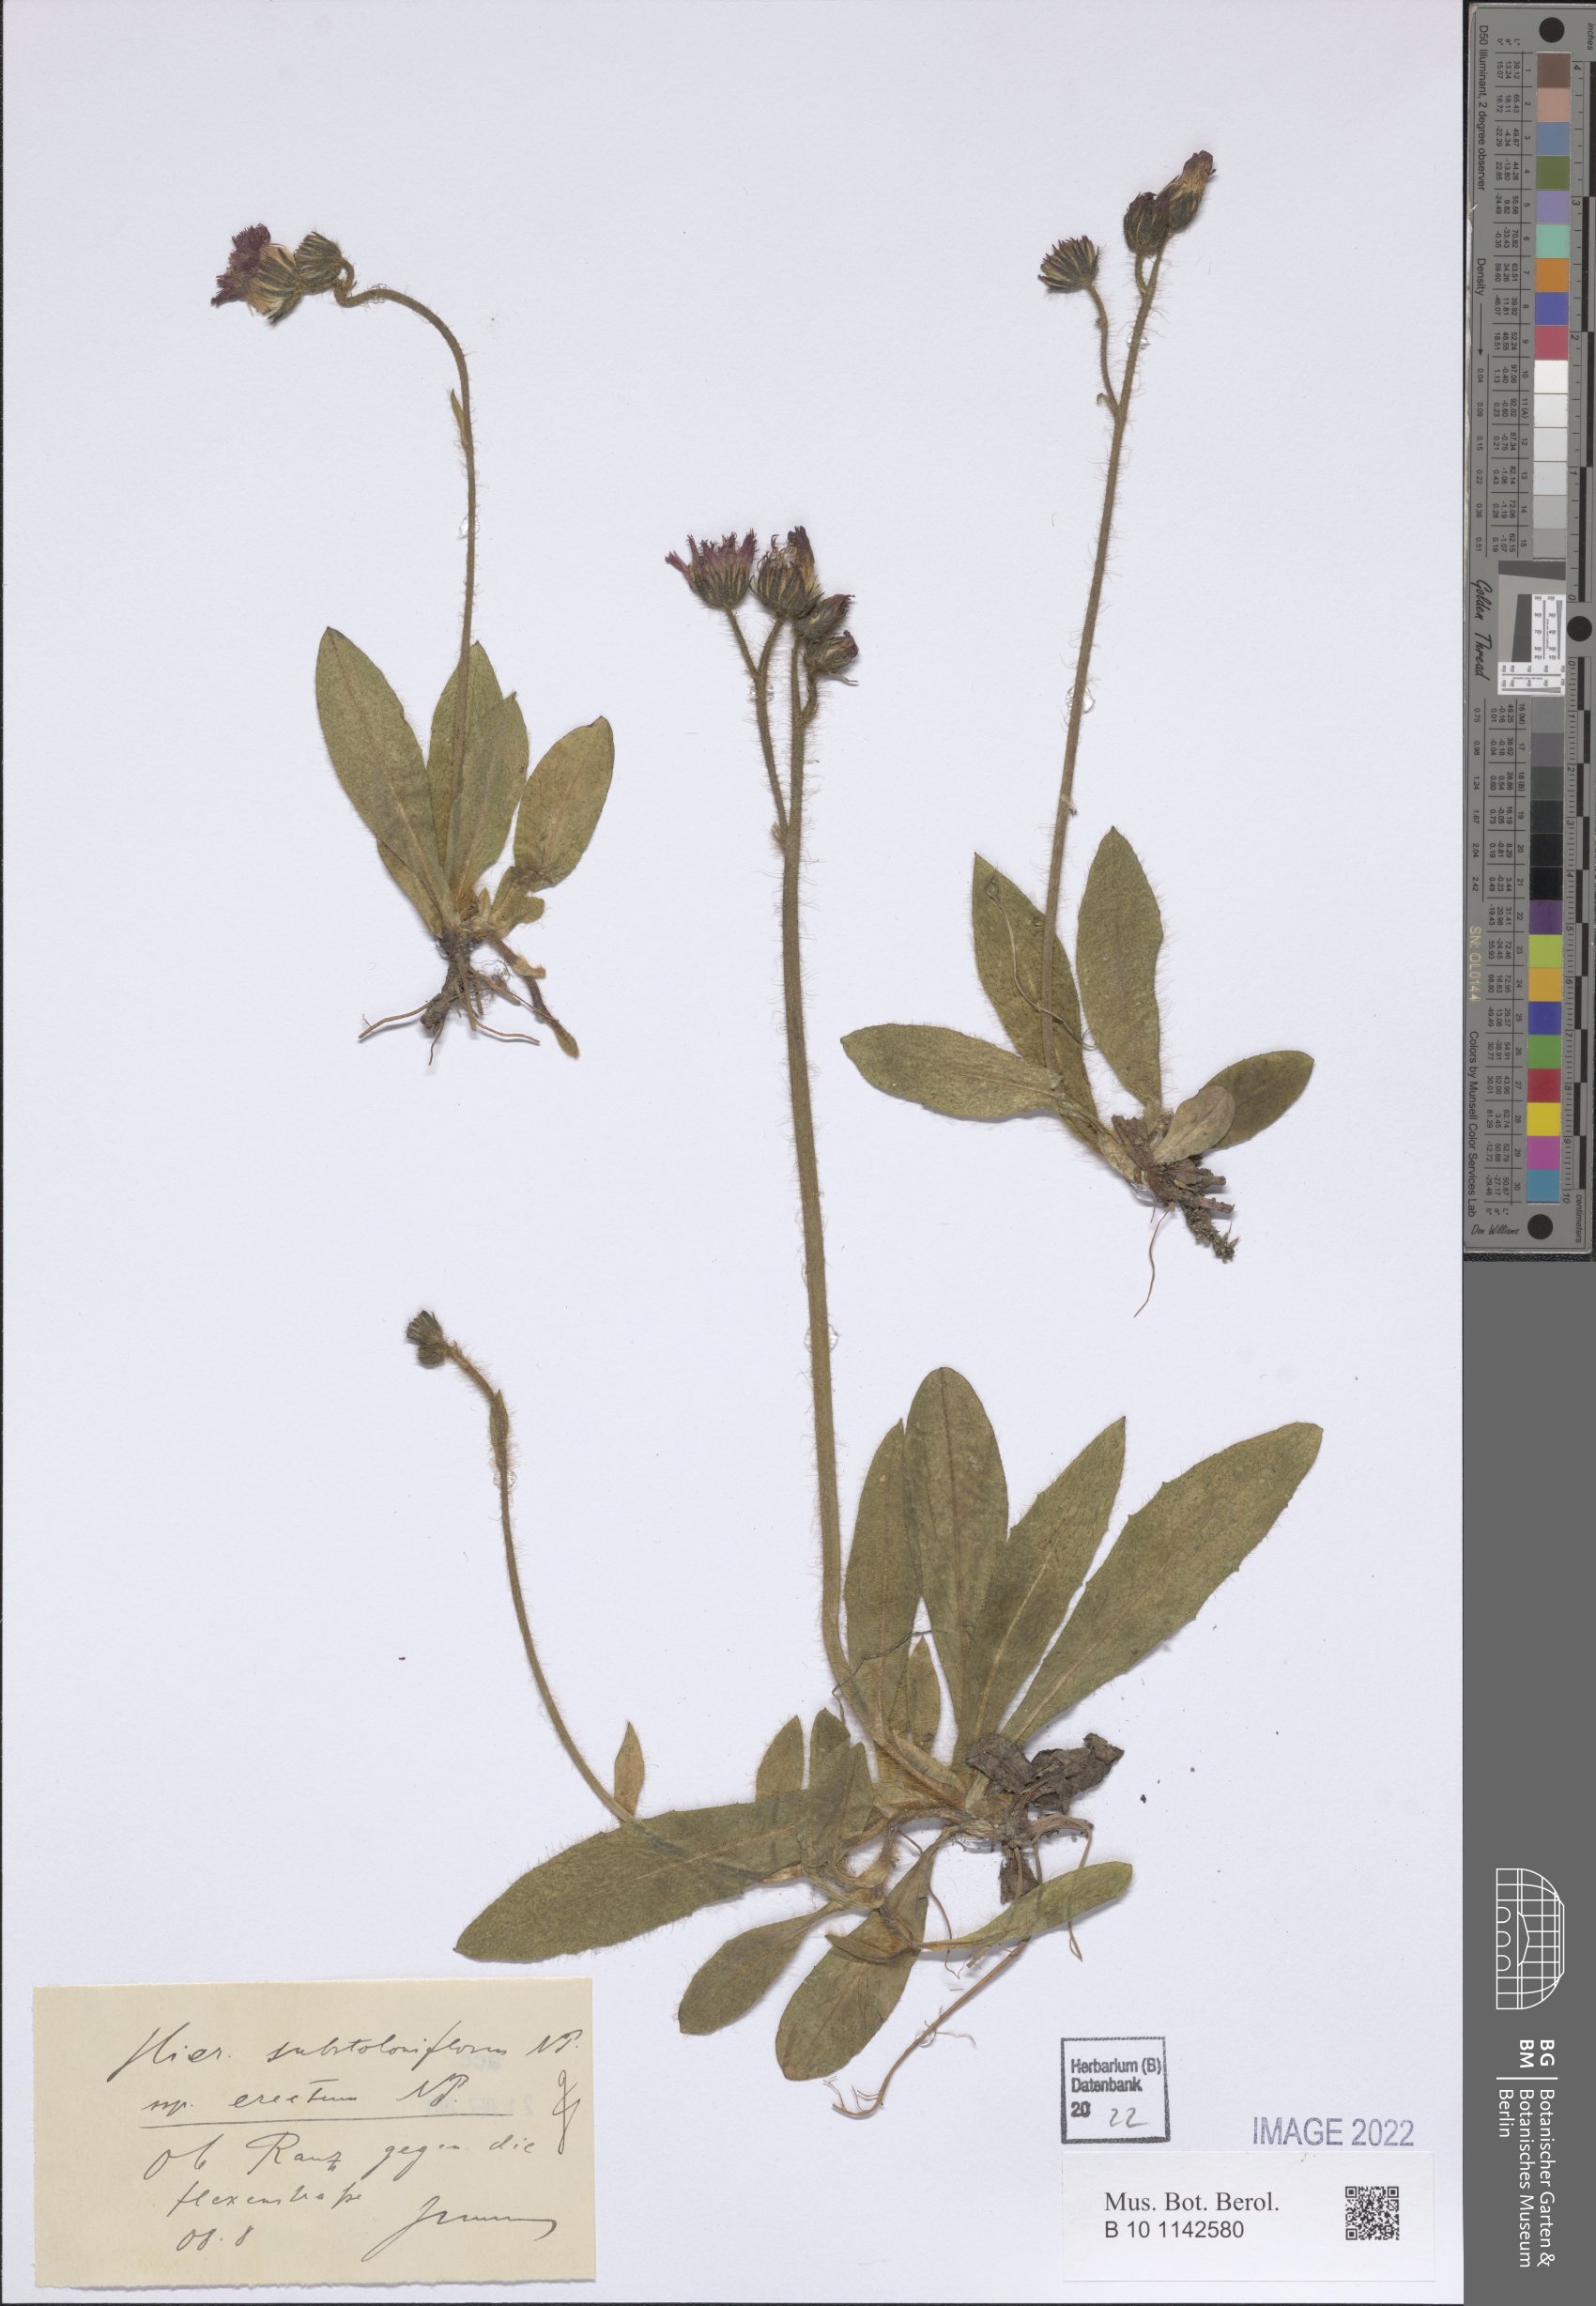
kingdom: Plantae
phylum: Tracheophyta
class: Magnoliopsida
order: Asterales
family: Asteraceae
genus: Pilosella
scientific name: Pilosella substoloniflora
